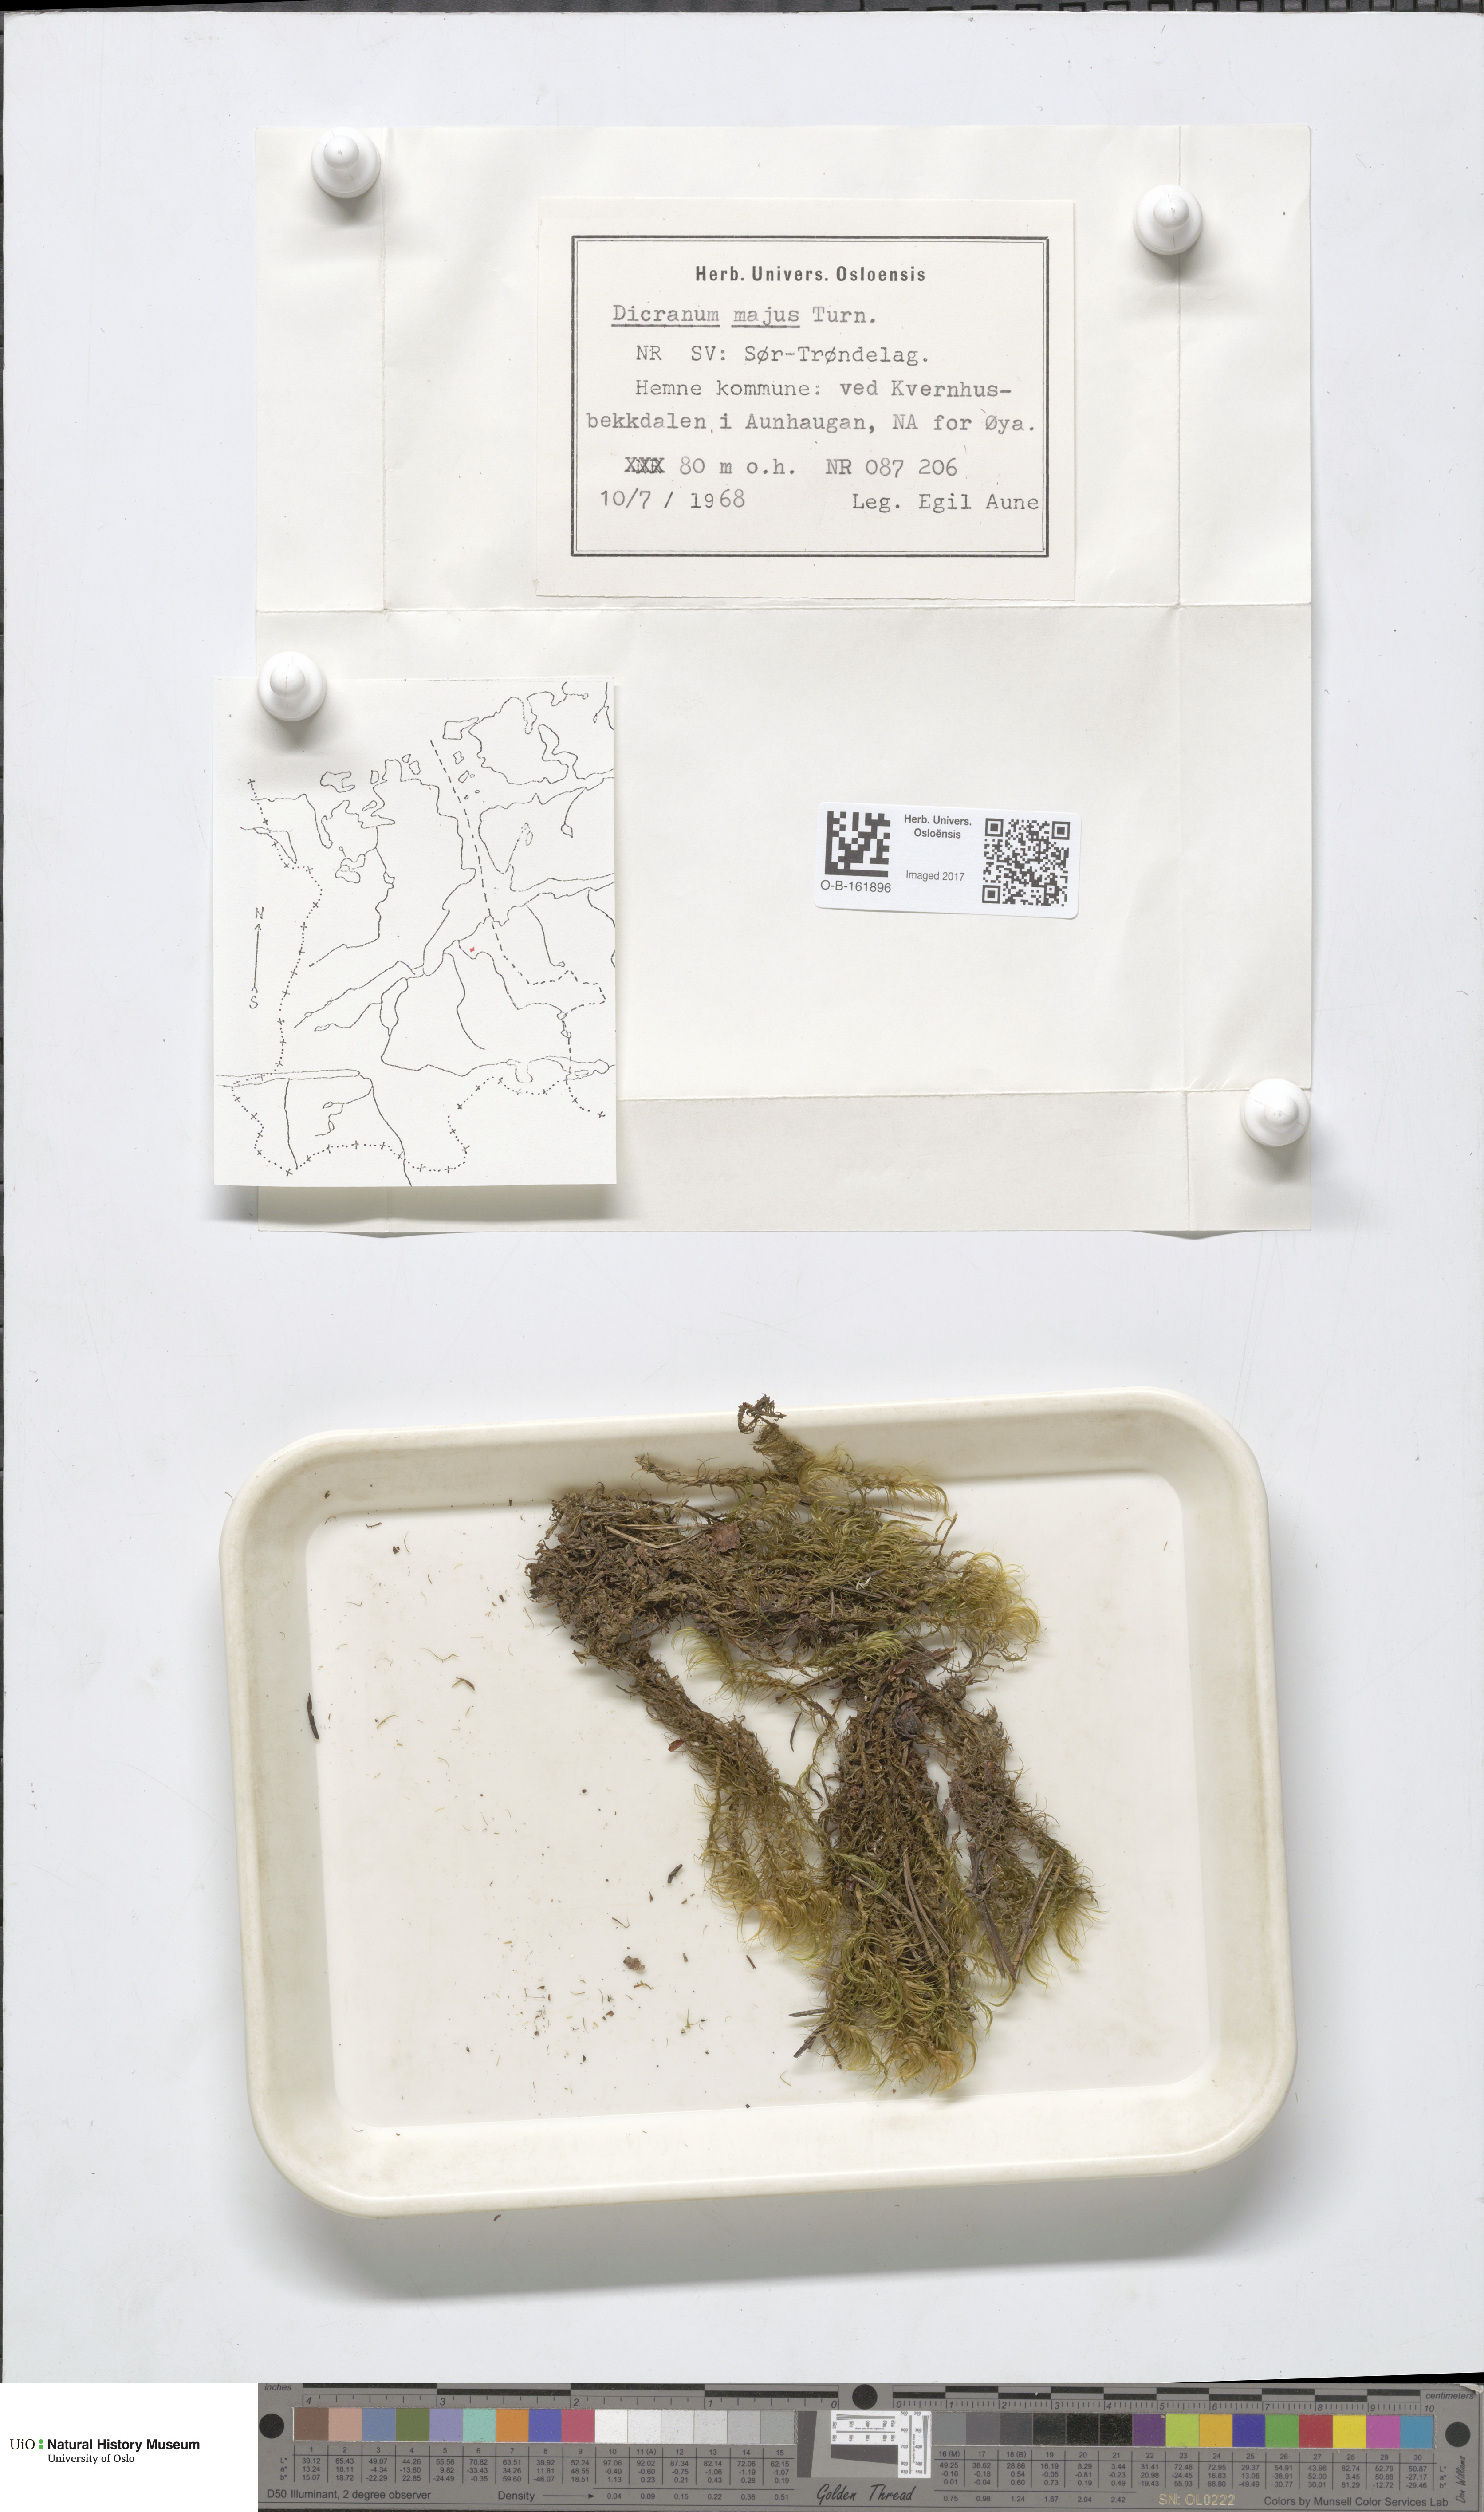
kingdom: Plantae
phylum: Bryophyta
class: Bryopsida
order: Dicranales
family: Dicranaceae
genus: Dicranum
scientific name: Dicranum majus
